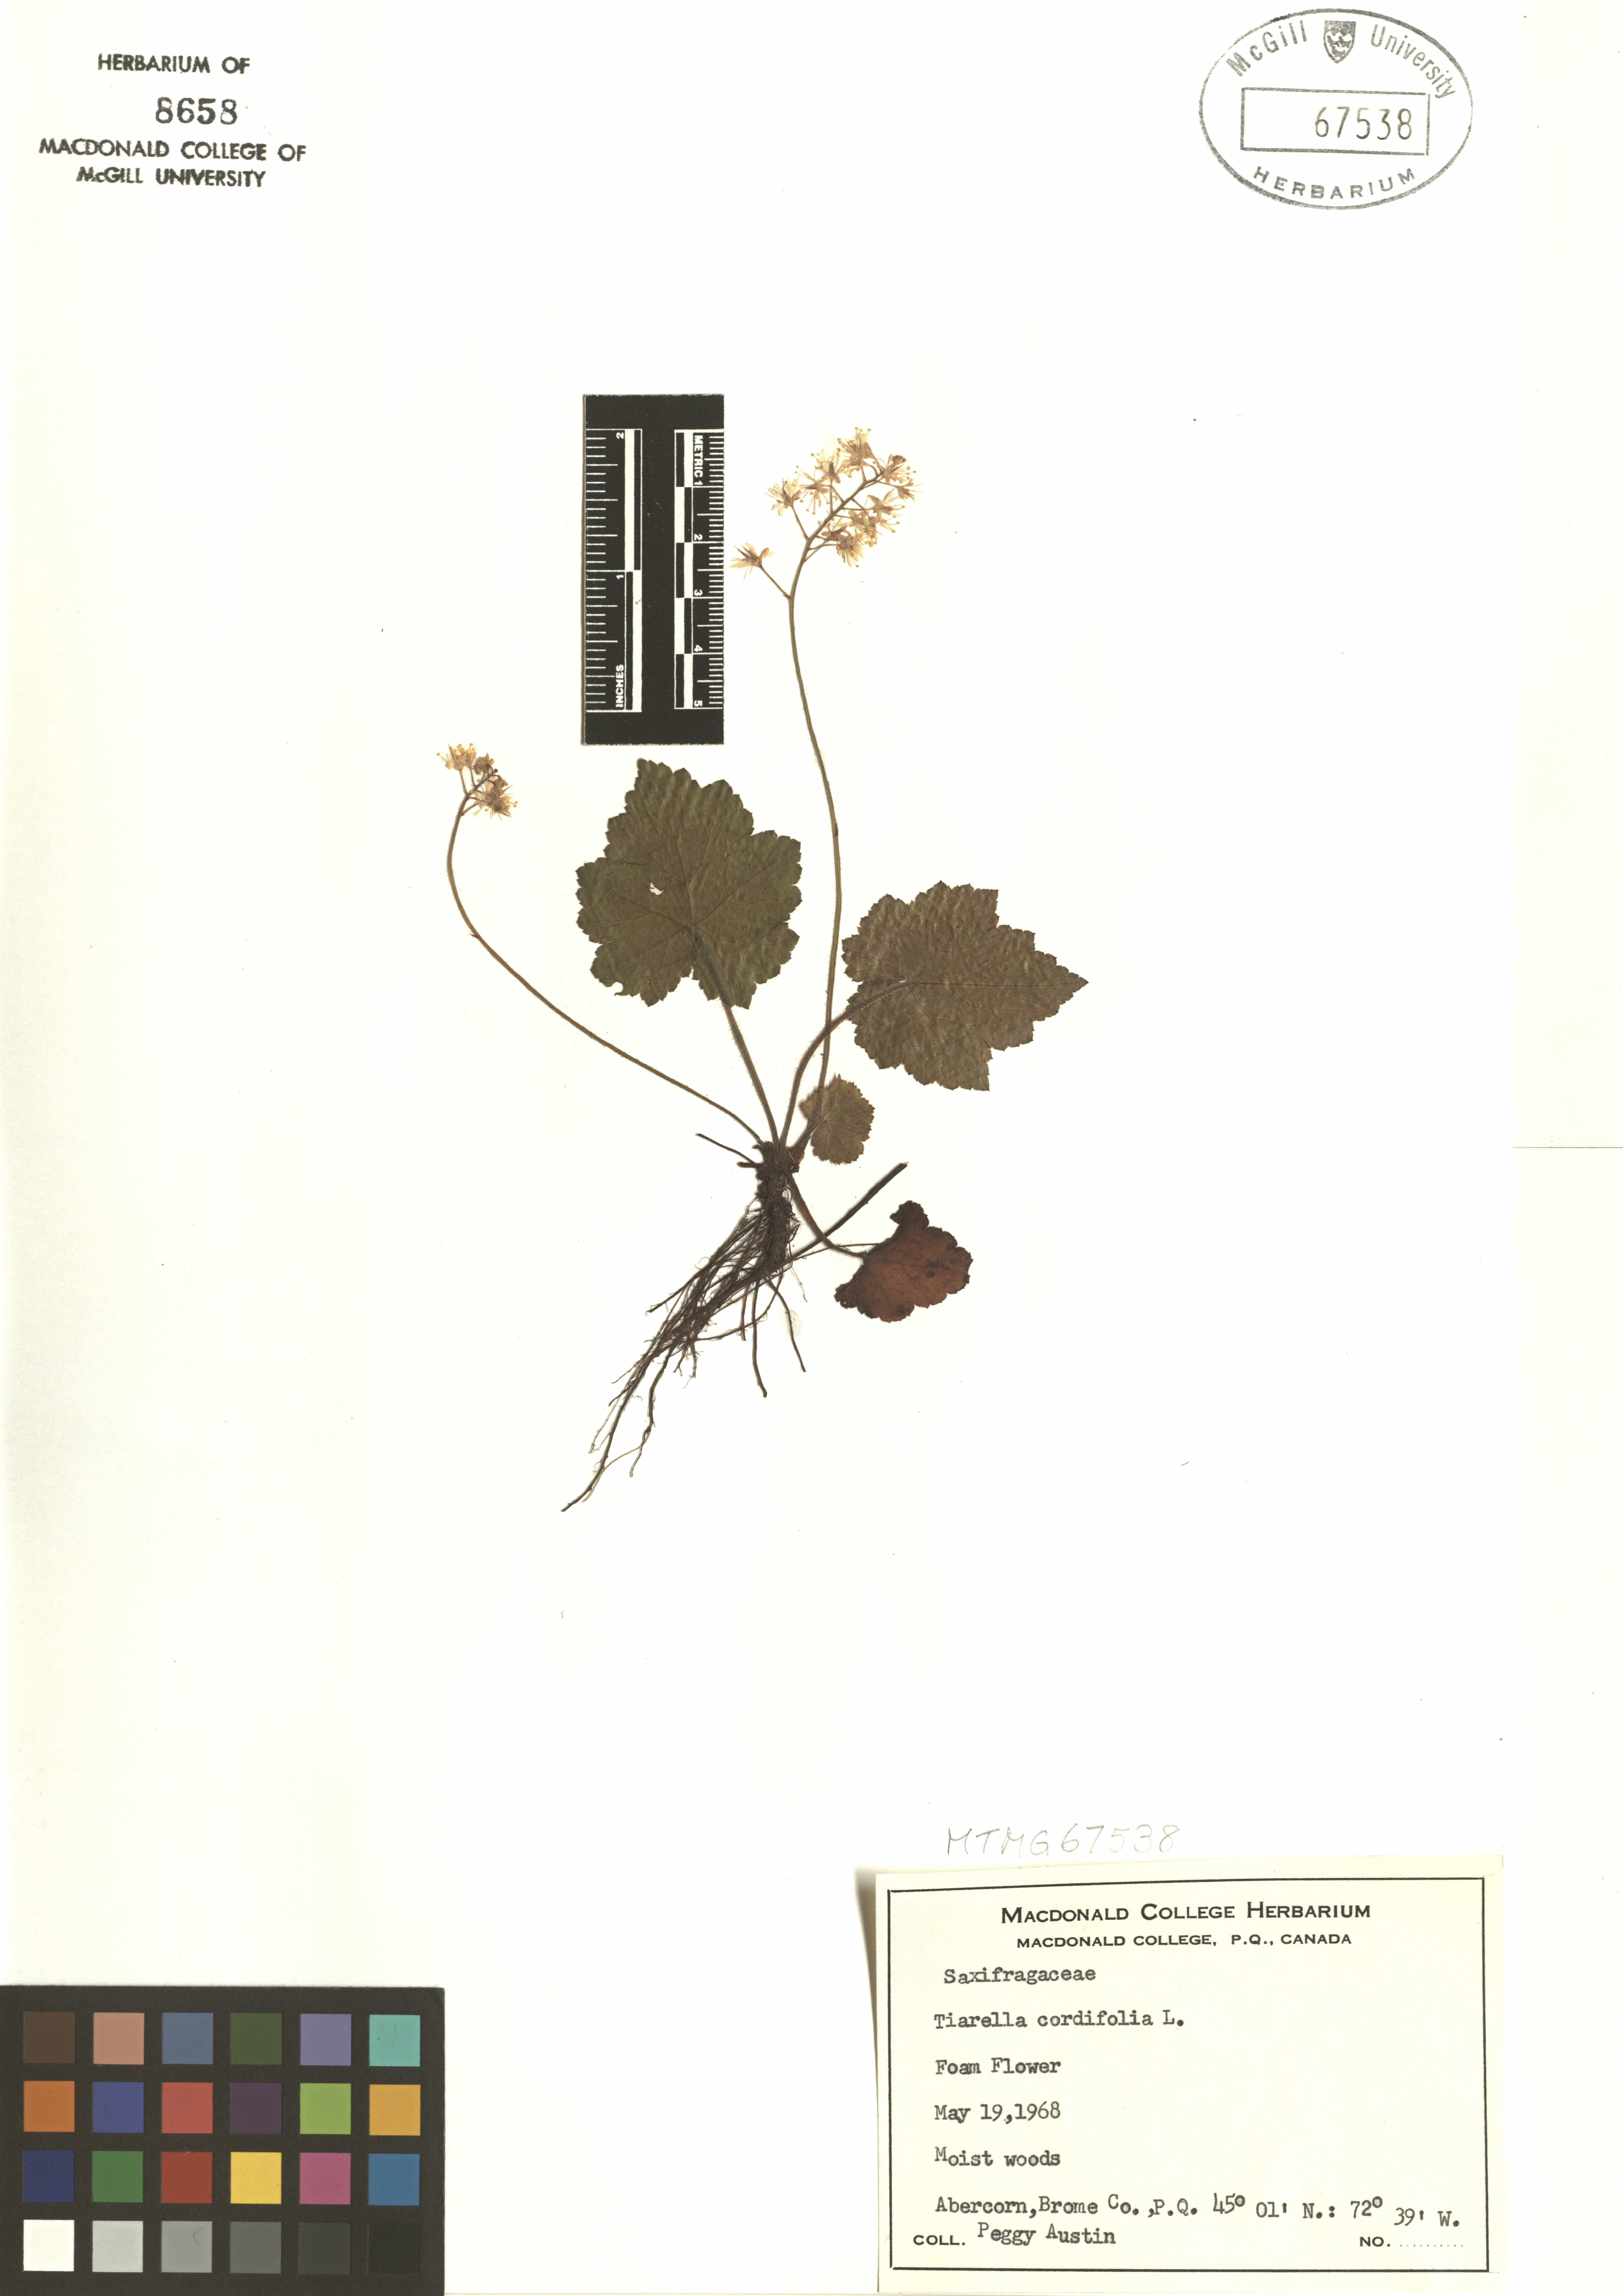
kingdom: Plantae
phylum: Tracheophyta
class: Magnoliopsida
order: Saxifragales
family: Saxifragaceae
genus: Tiarella
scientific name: Tiarella cordifolia
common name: Foamflower
